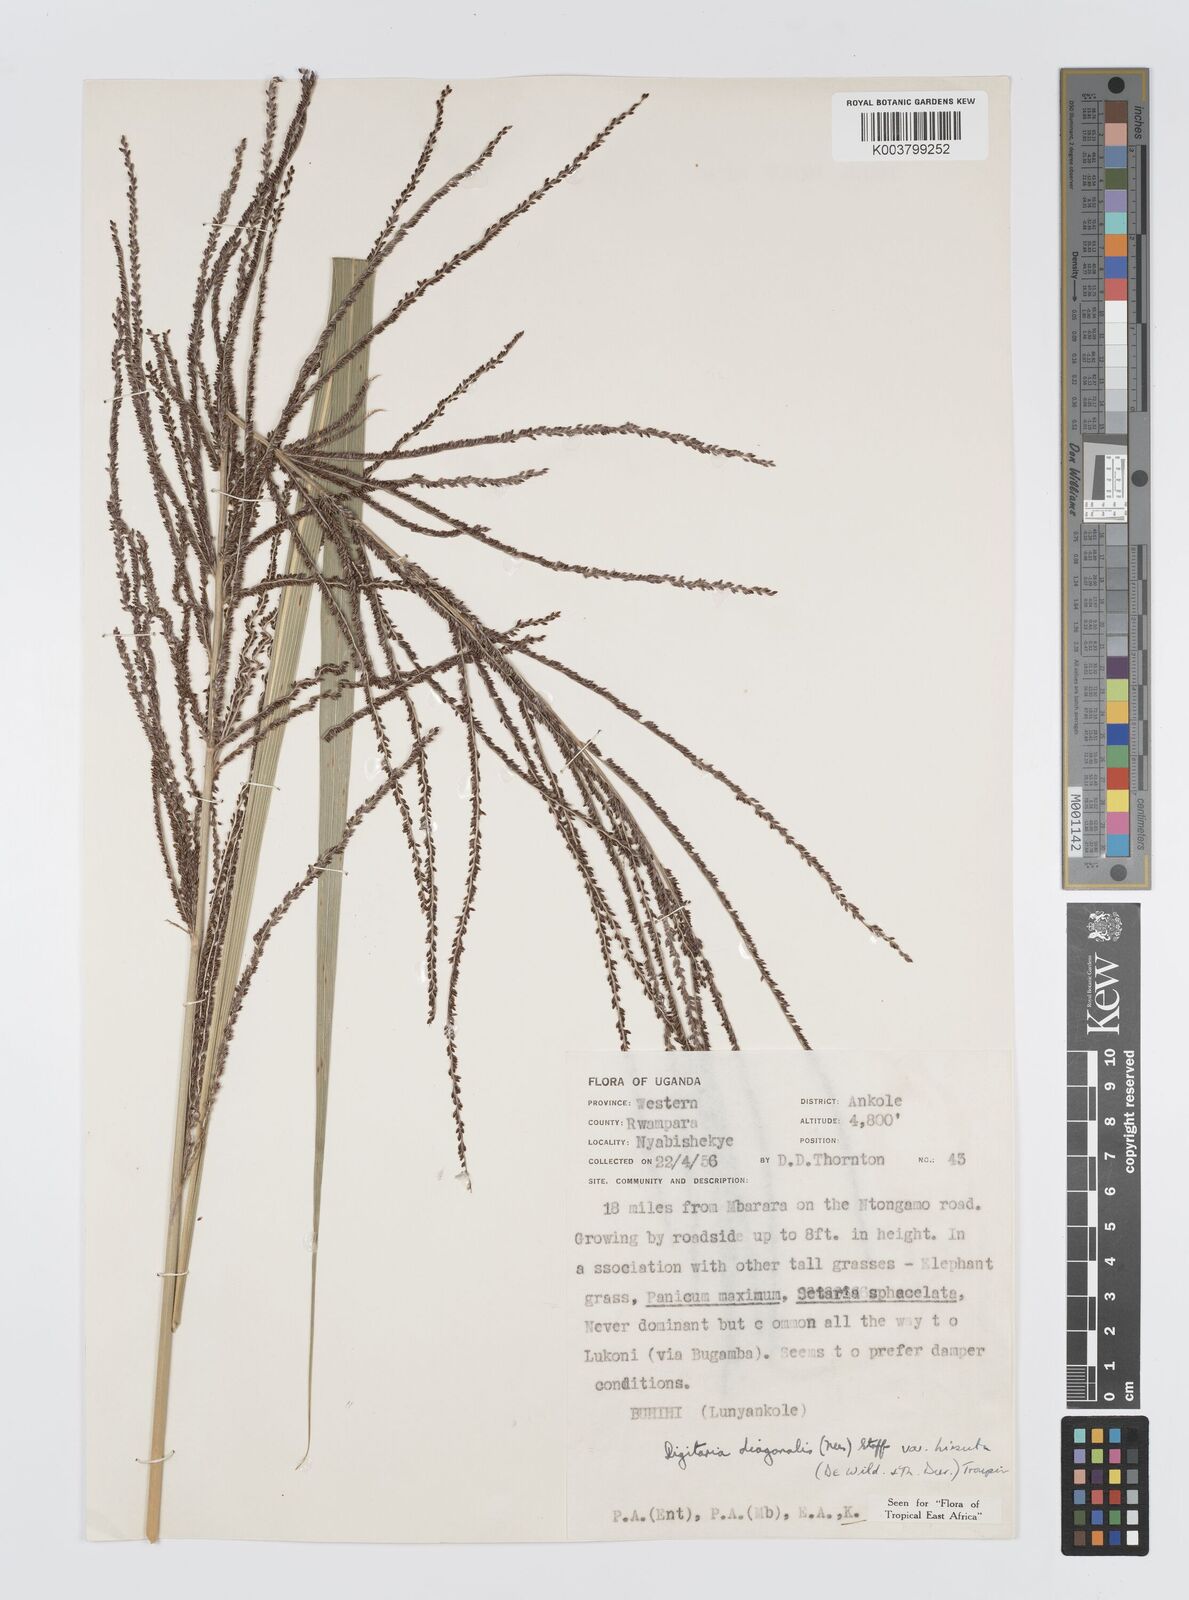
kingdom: Plantae
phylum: Tracheophyta
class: Liliopsida
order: Poales
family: Poaceae
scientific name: Poaceae
